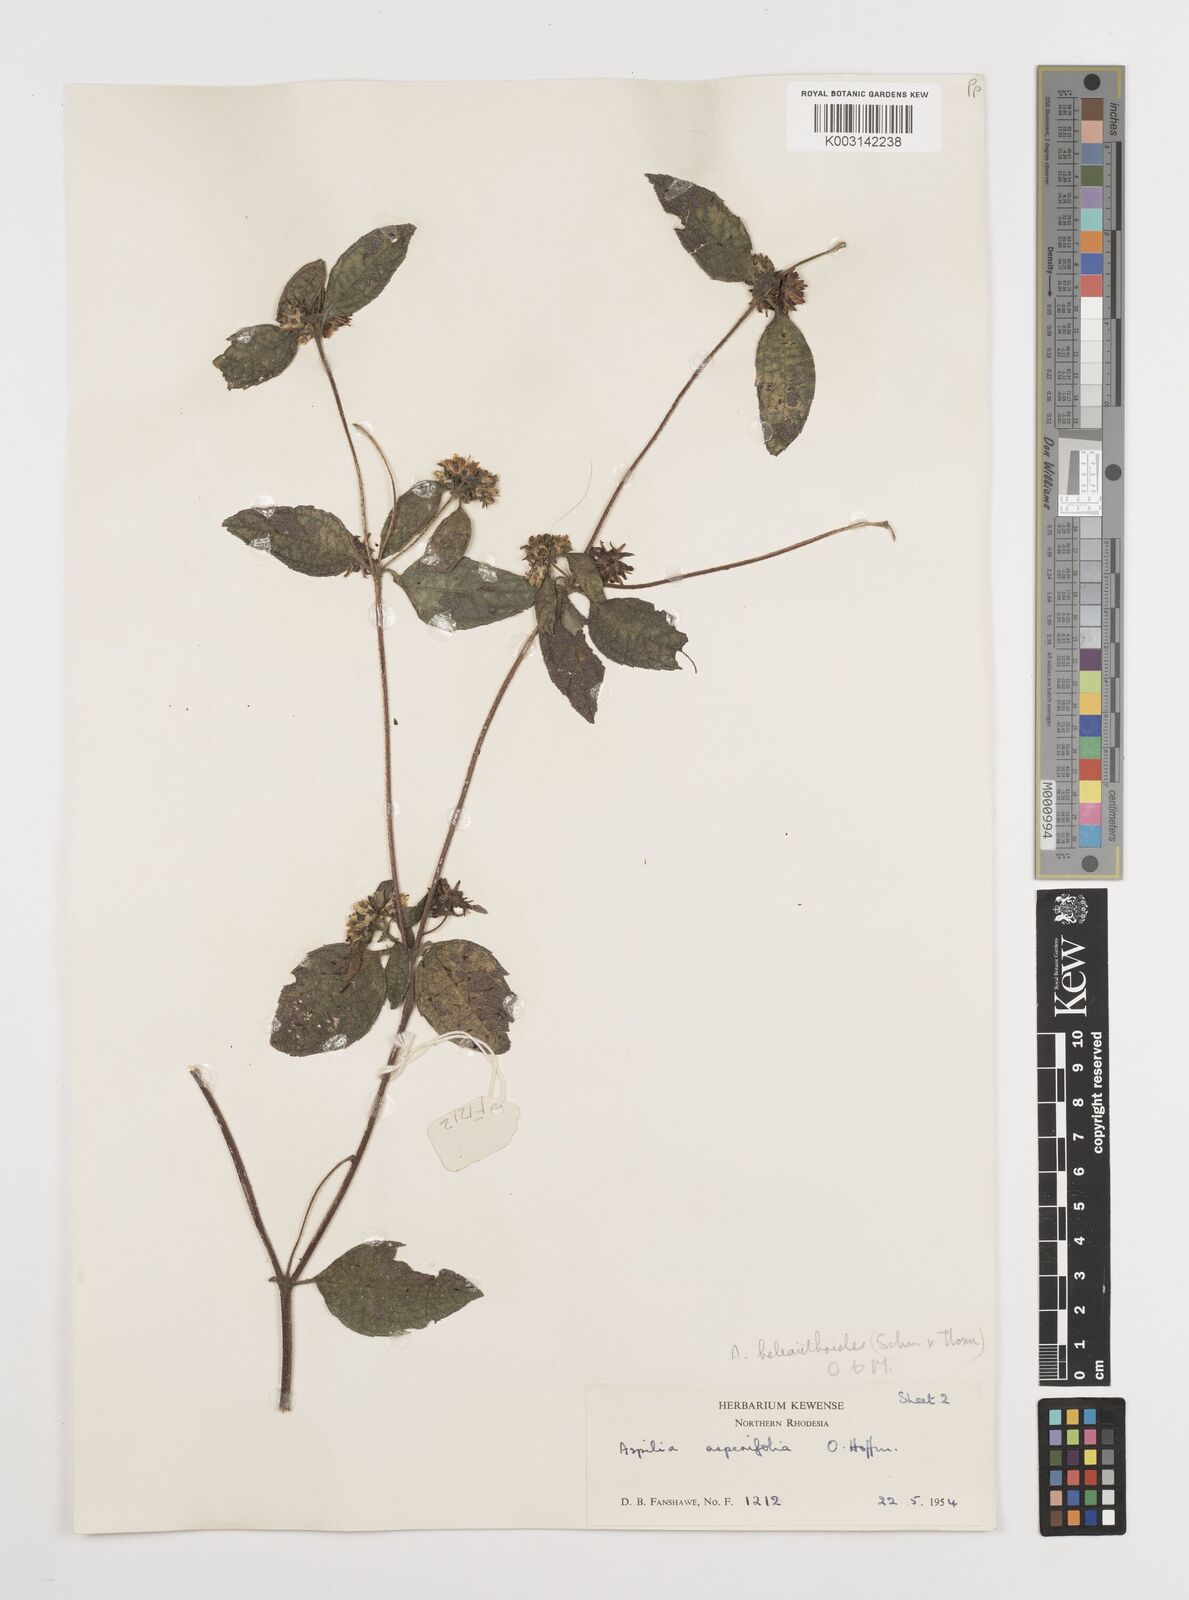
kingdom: Plantae
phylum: Tracheophyta
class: Magnoliopsida
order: Asterales
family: Asteraceae
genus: Aspilia
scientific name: Aspilia ciliata
